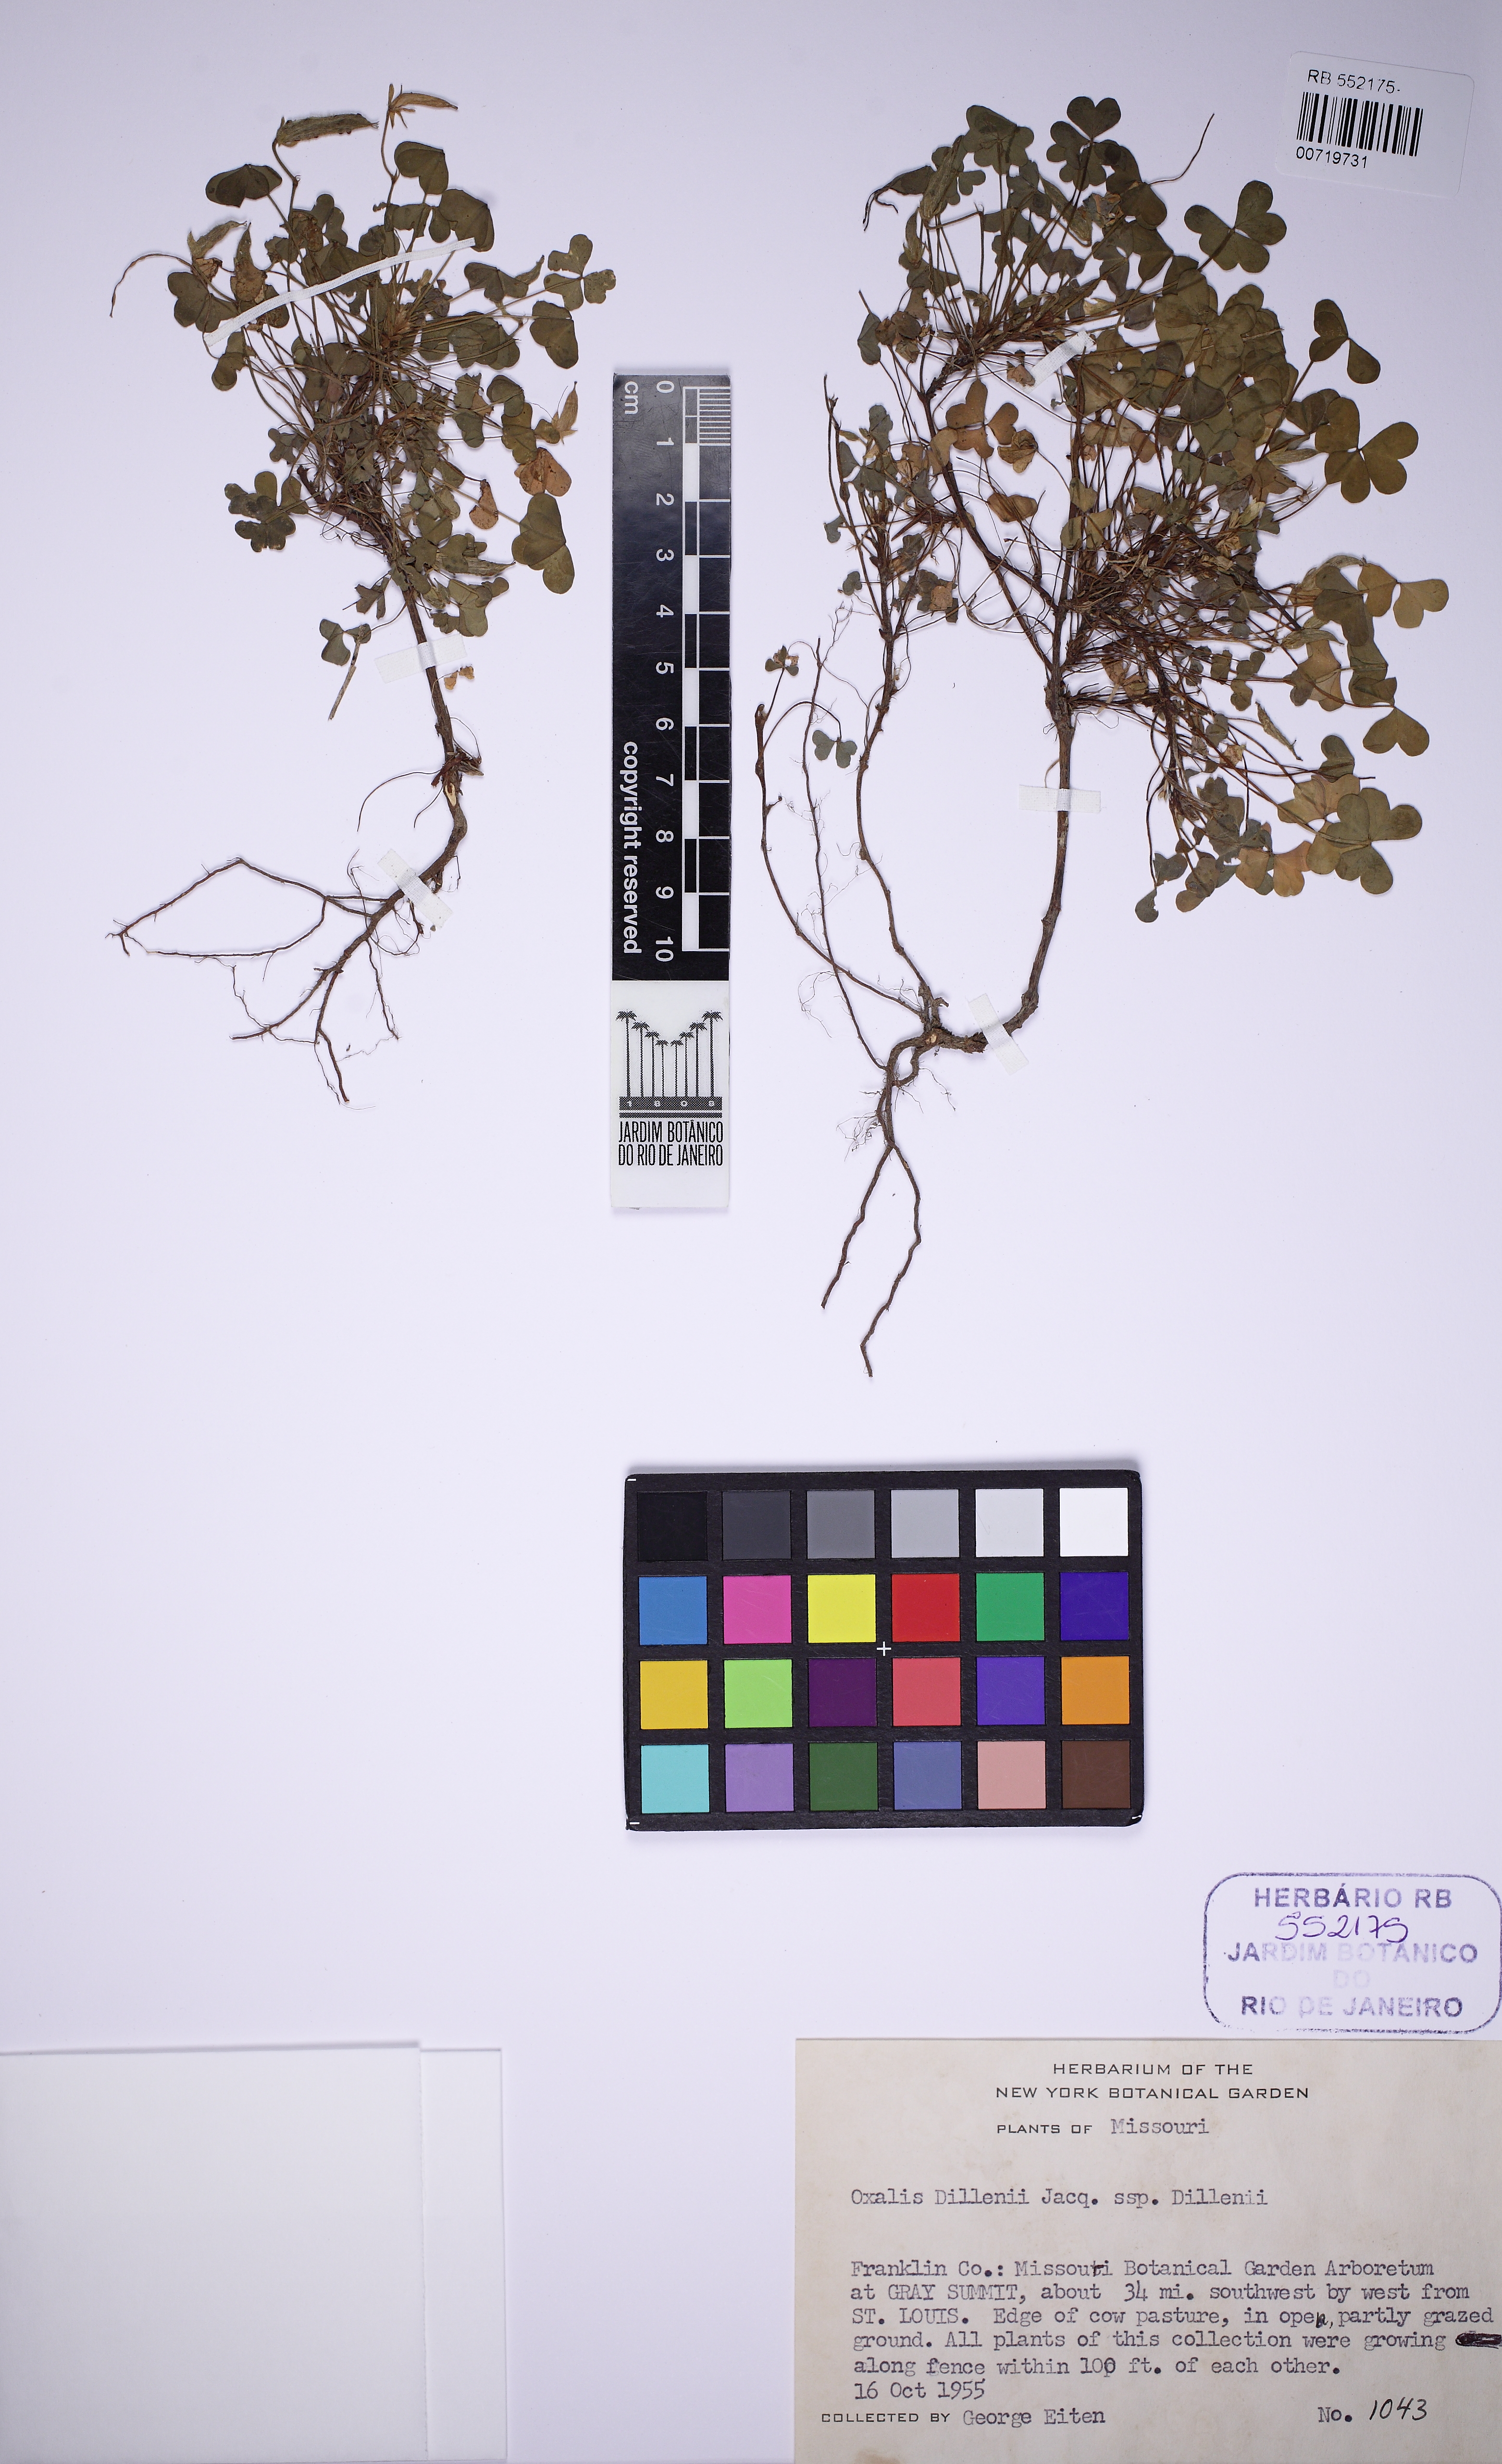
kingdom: Plantae
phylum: Tracheophyta
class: Magnoliopsida
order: Oxalidales
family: Oxalidaceae
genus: Oxalis
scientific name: Oxalis dillenii
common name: Sussex yellow-sorrel
